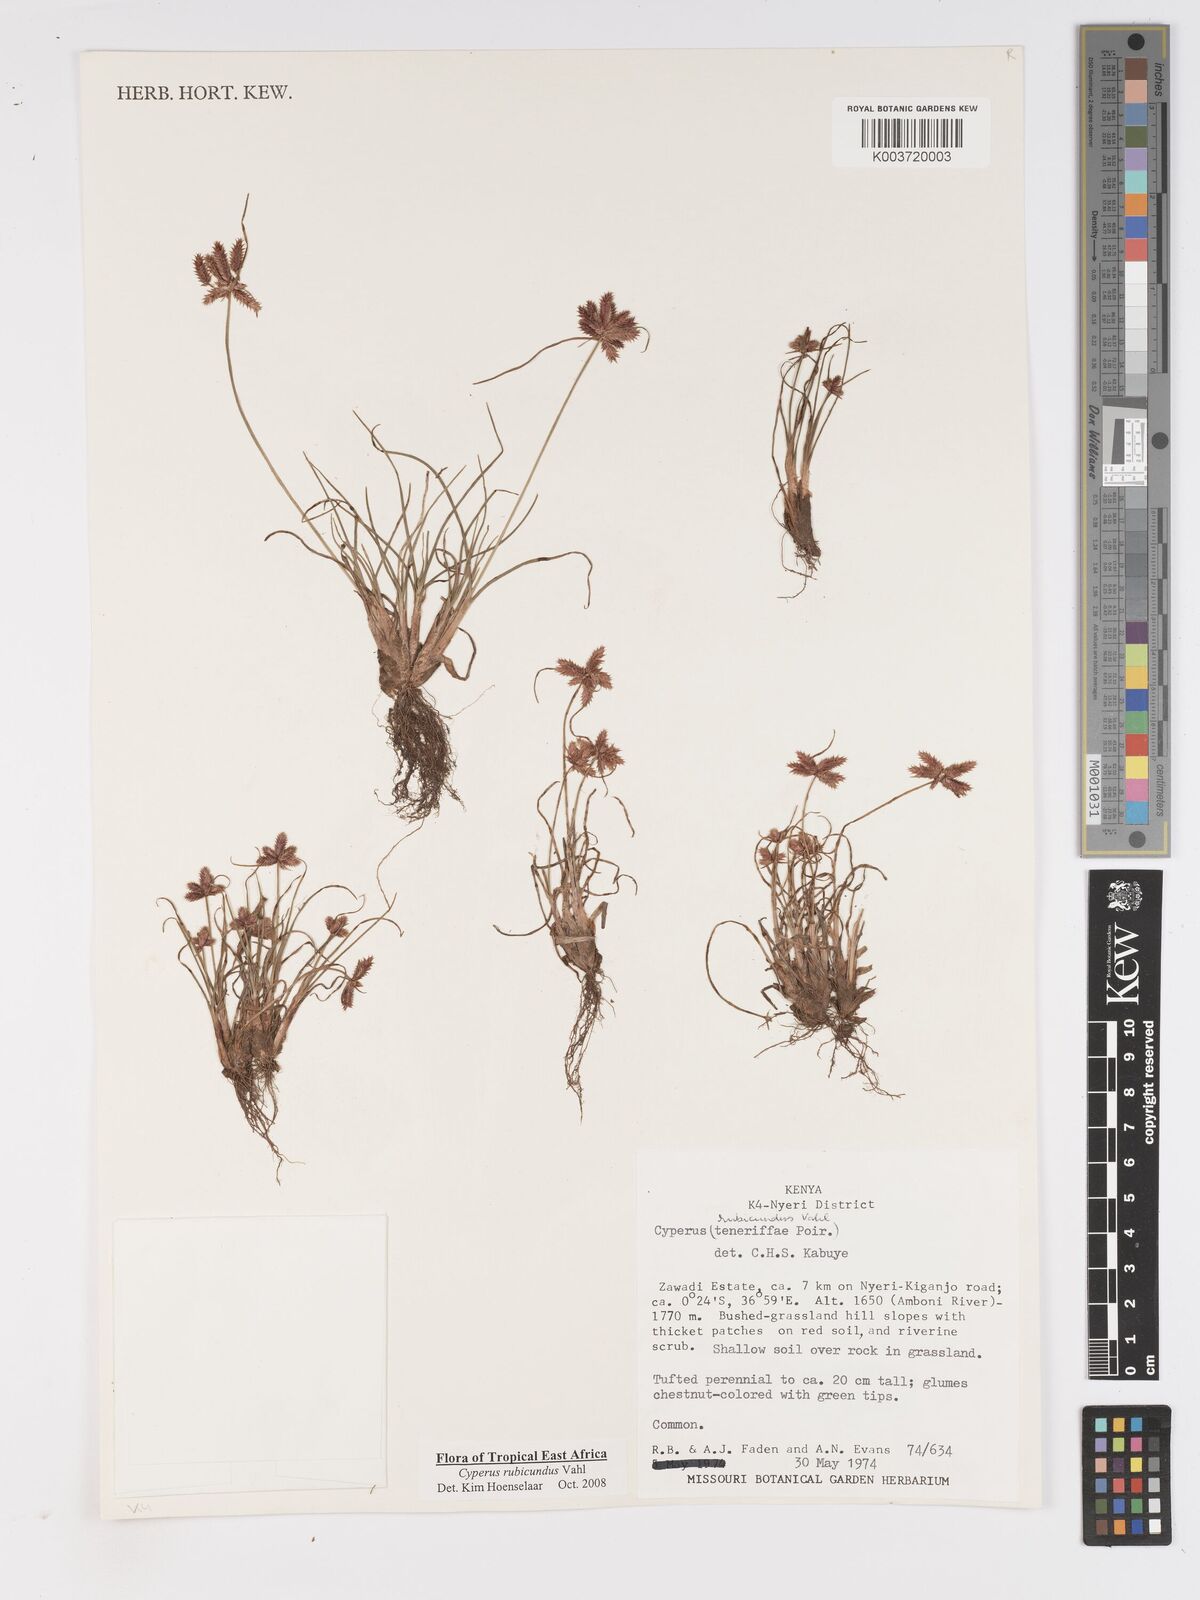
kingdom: Plantae
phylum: Tracheophyta
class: Liliopsida
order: Poales
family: Cyperaceae
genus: Cyperus
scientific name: Cyperus rubicundus
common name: Coco-grass
